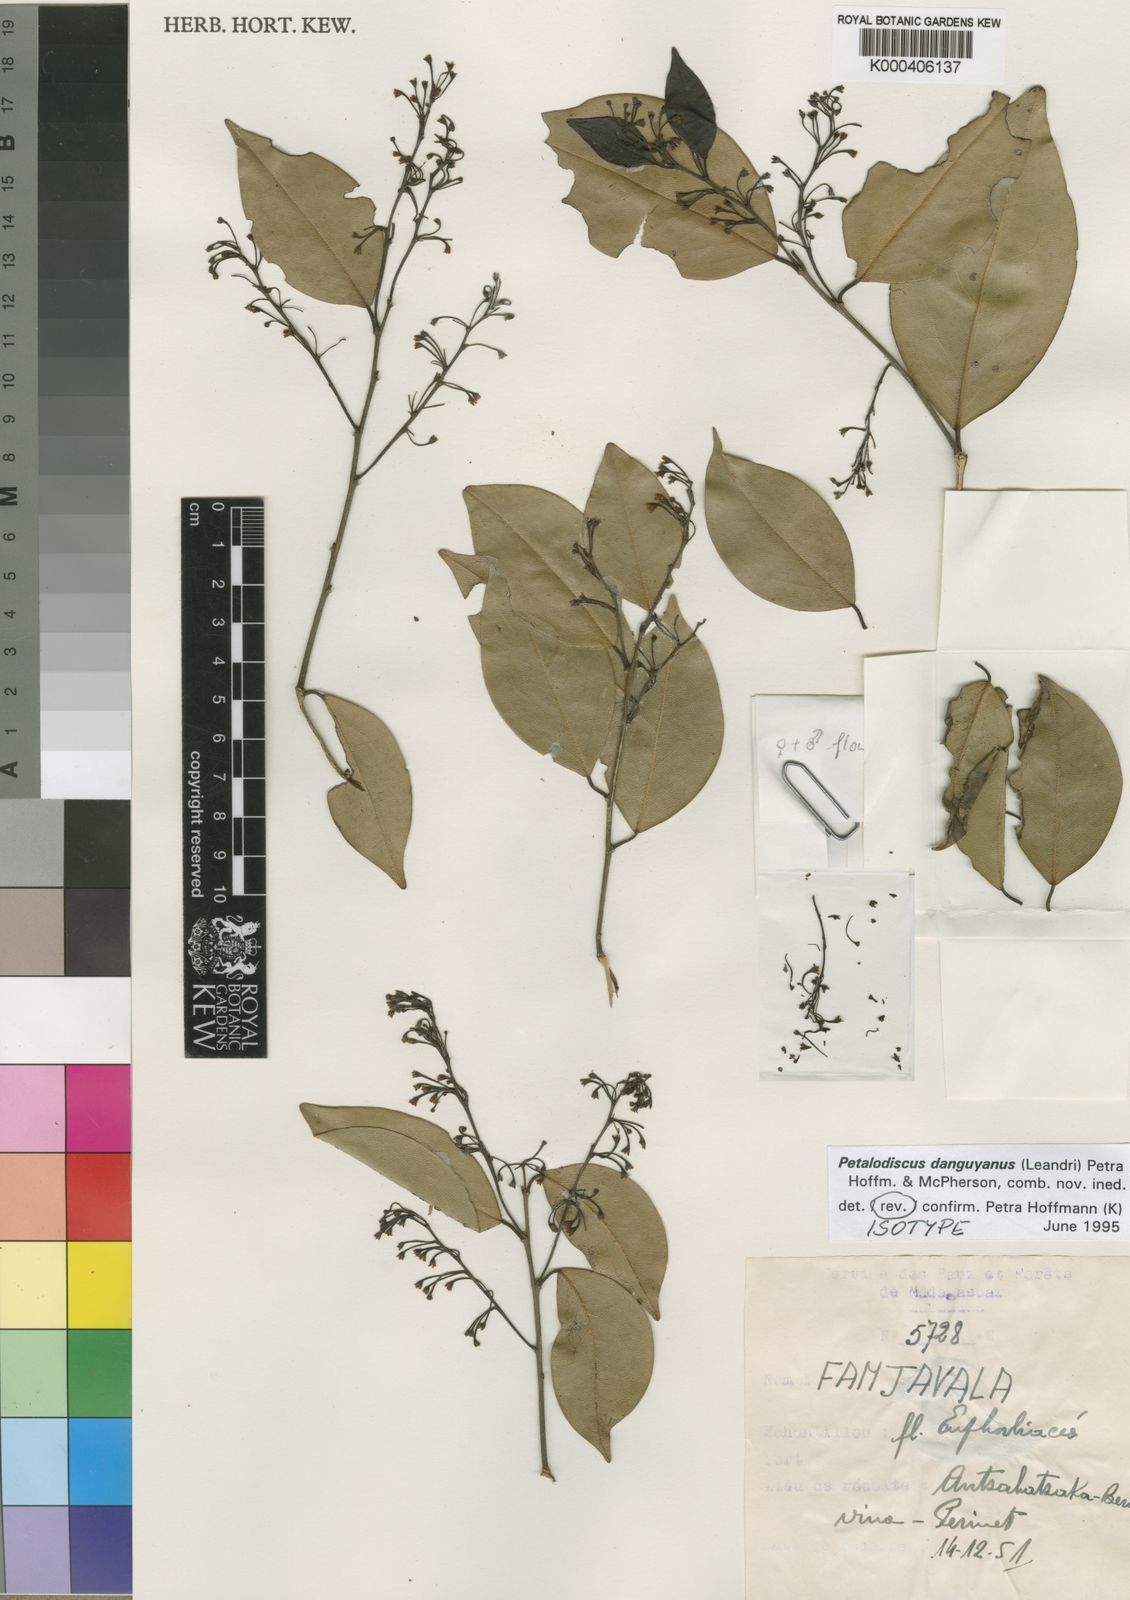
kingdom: Plantae
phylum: Tracheophyta
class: Magnoliopsida
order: Malpighiales
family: Phyllanthaceae
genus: Wielandia
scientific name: Wielandia
